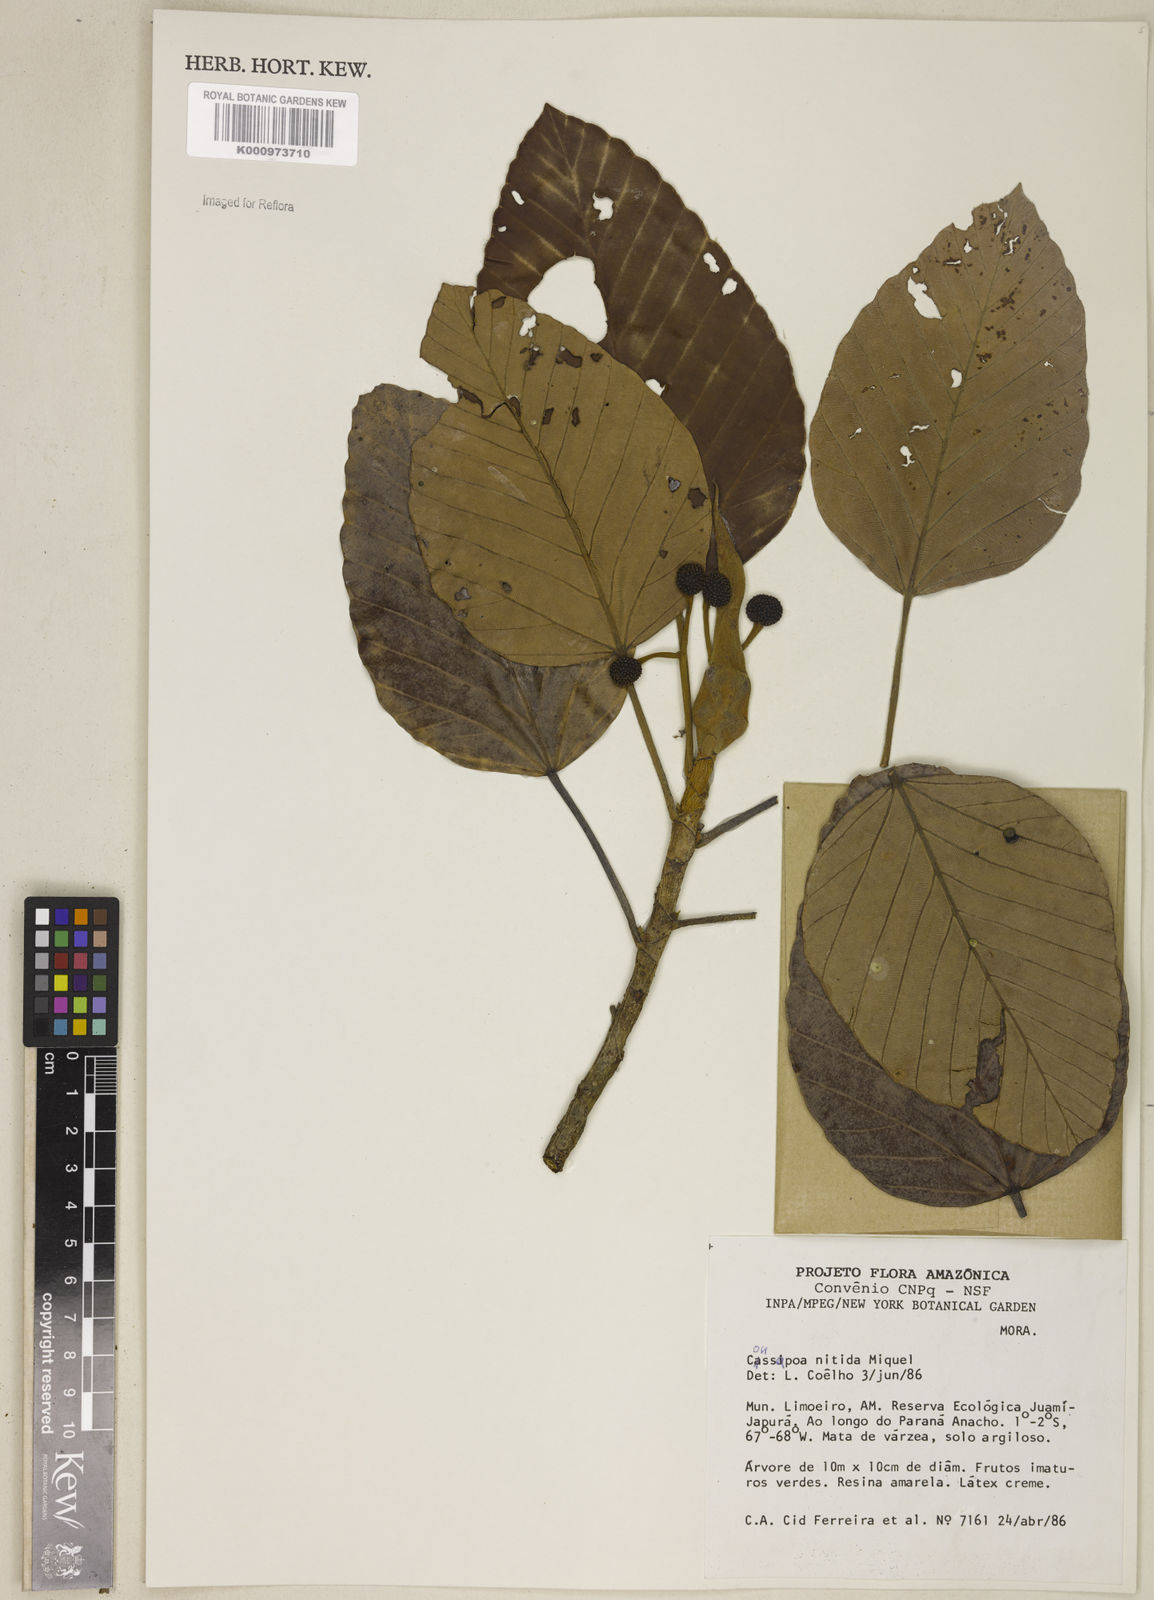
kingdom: Plantae
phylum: Tracheophyta
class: Magnoliopsida
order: Rosales
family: Urticaceae
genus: Coussapoa
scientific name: Coussapoa nitida
